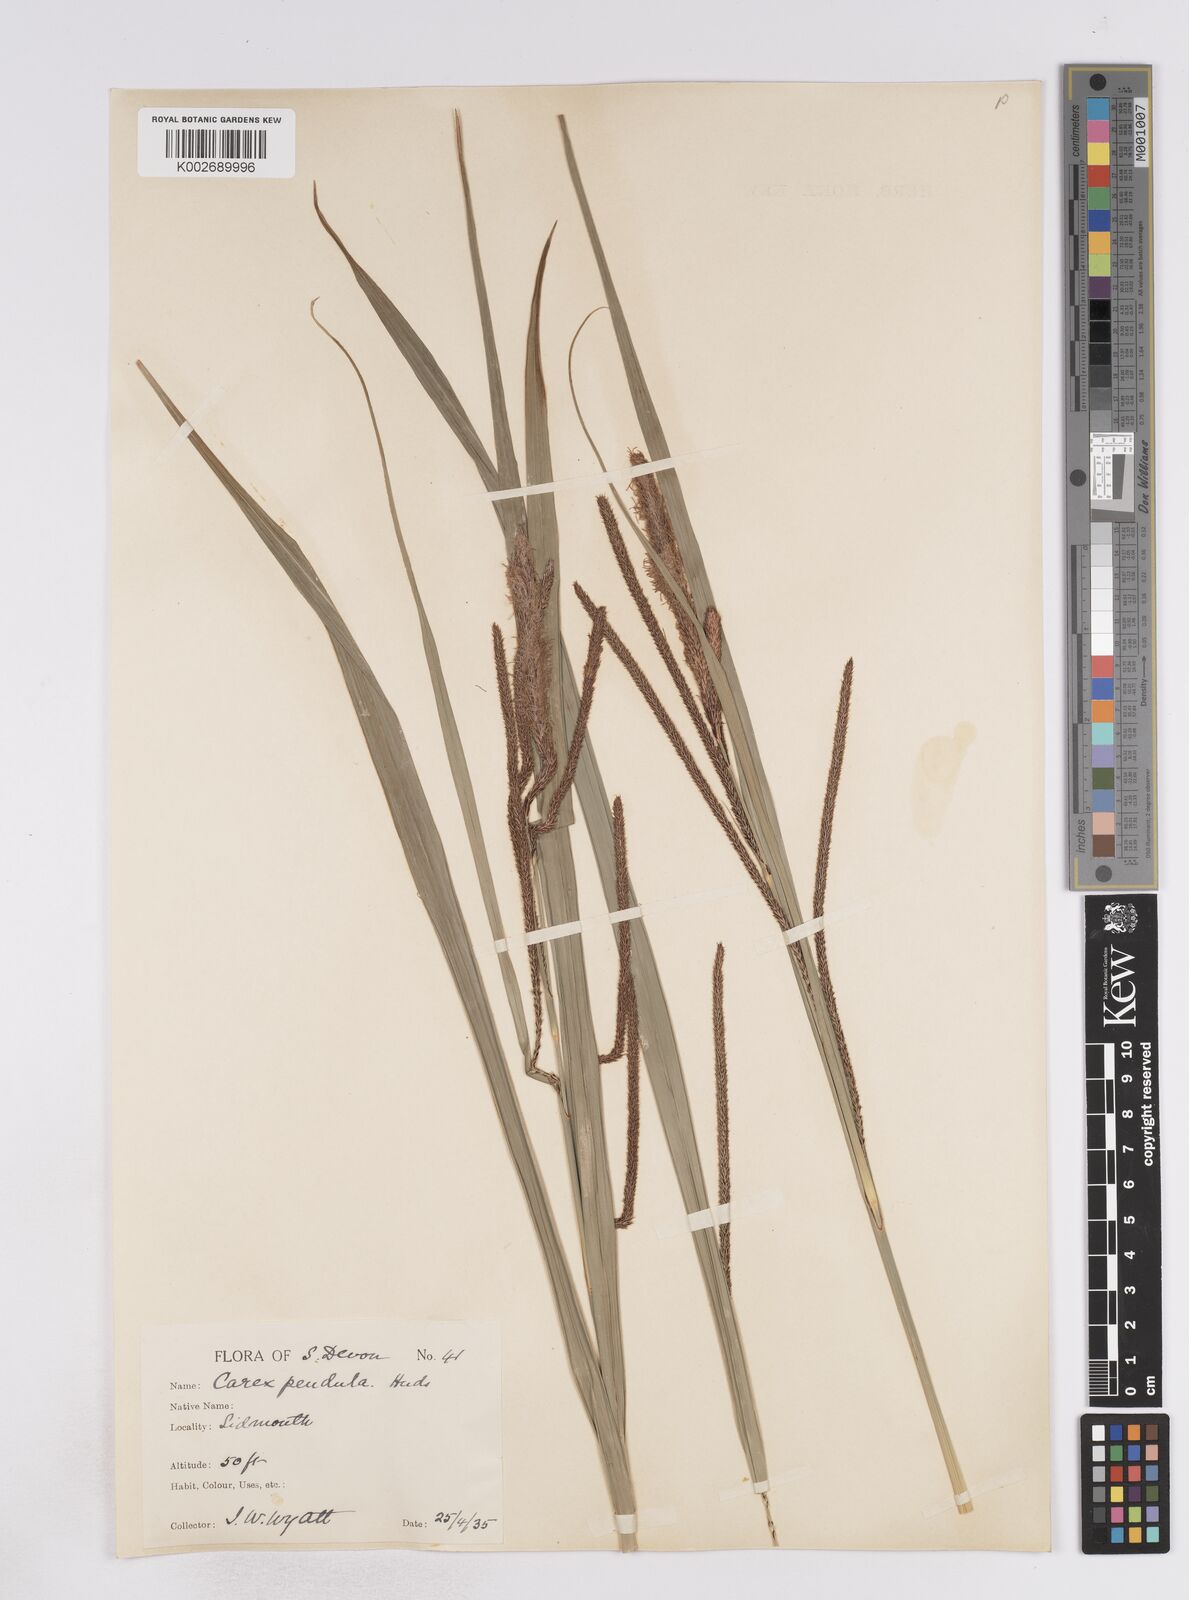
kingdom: Plantae
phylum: Tracheophyta
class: Liliopsida
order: Poales
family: Cyperaceae
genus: Carex
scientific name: Carex pendula
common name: Pendulous sedge
